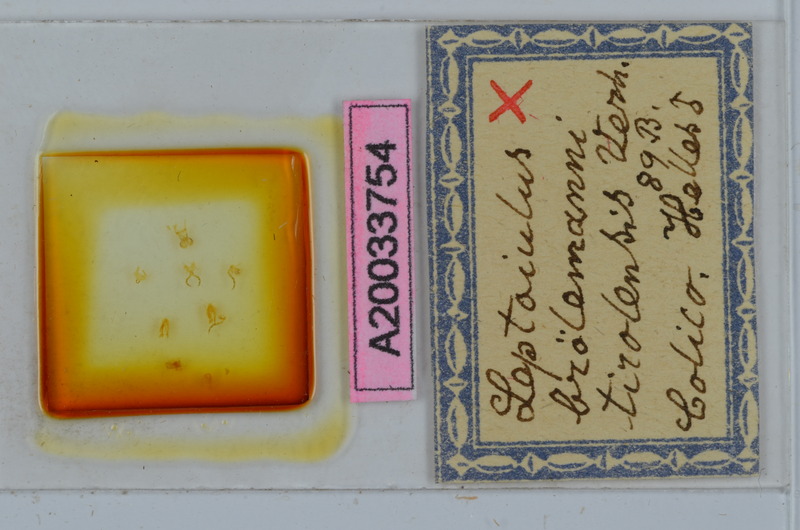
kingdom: Animalia
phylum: Arthropoda
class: Diplopoda
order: Julida
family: Julidae
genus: Leptoiulus
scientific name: Leptoiulus broelemanni
